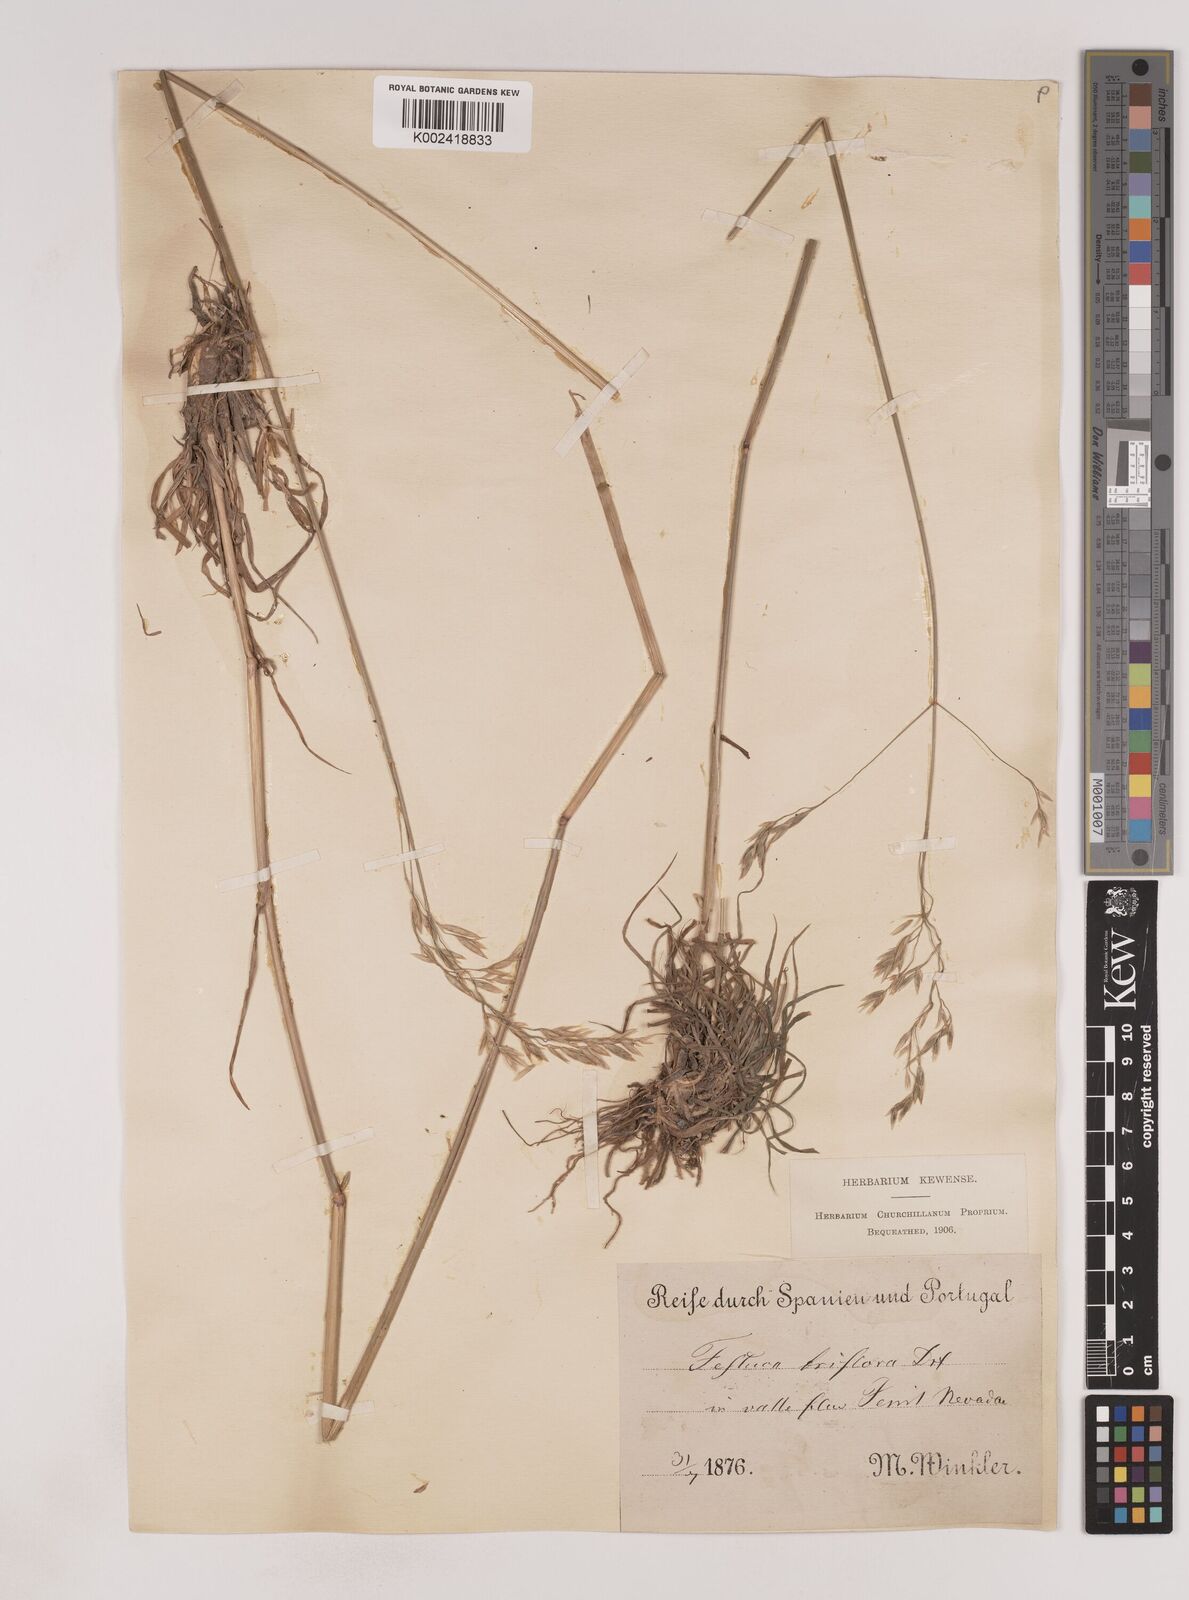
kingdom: Plantae
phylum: Tracheophyta
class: Liliopsida
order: Poales
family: Poaceae
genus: Patzkea
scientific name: Patzkea patula
